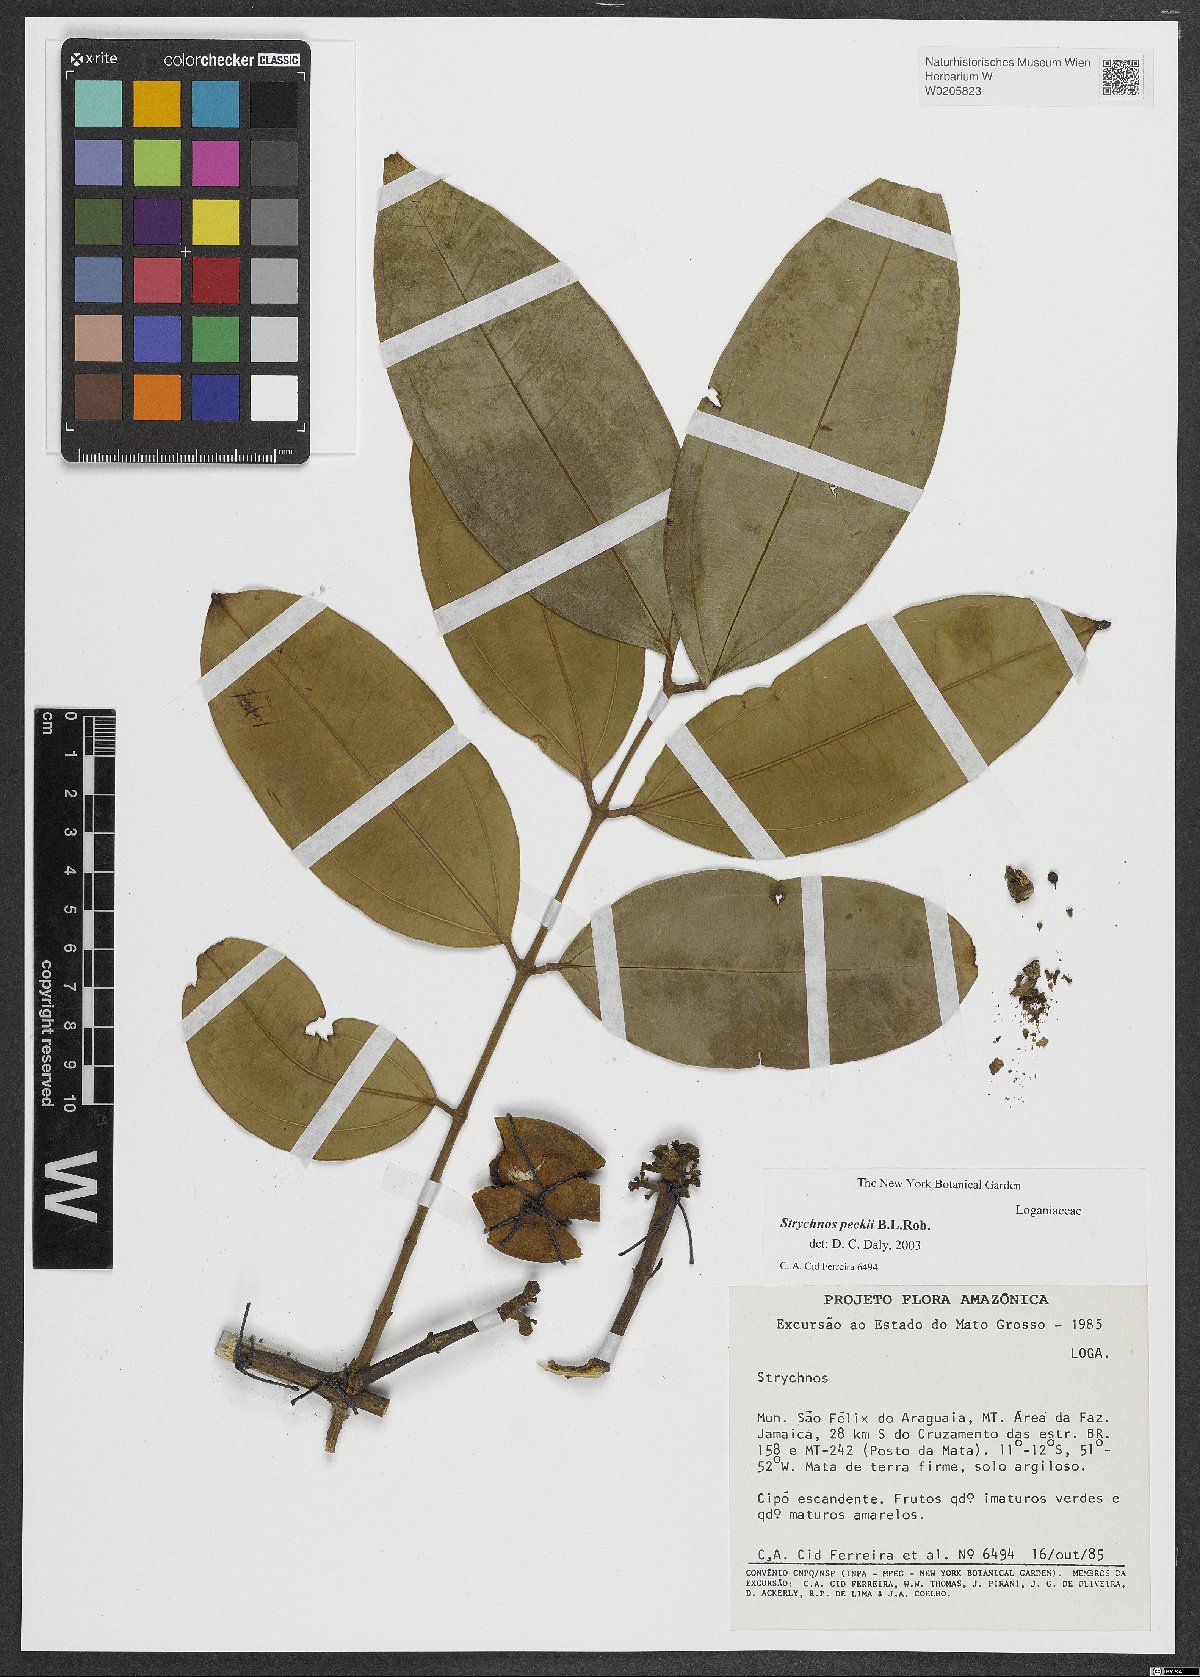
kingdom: Plantae
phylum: Tracheophyta
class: Magnoliopsida
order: Gentianales
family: Loganiaceae
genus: Strychnos
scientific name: Strychnos peckii
